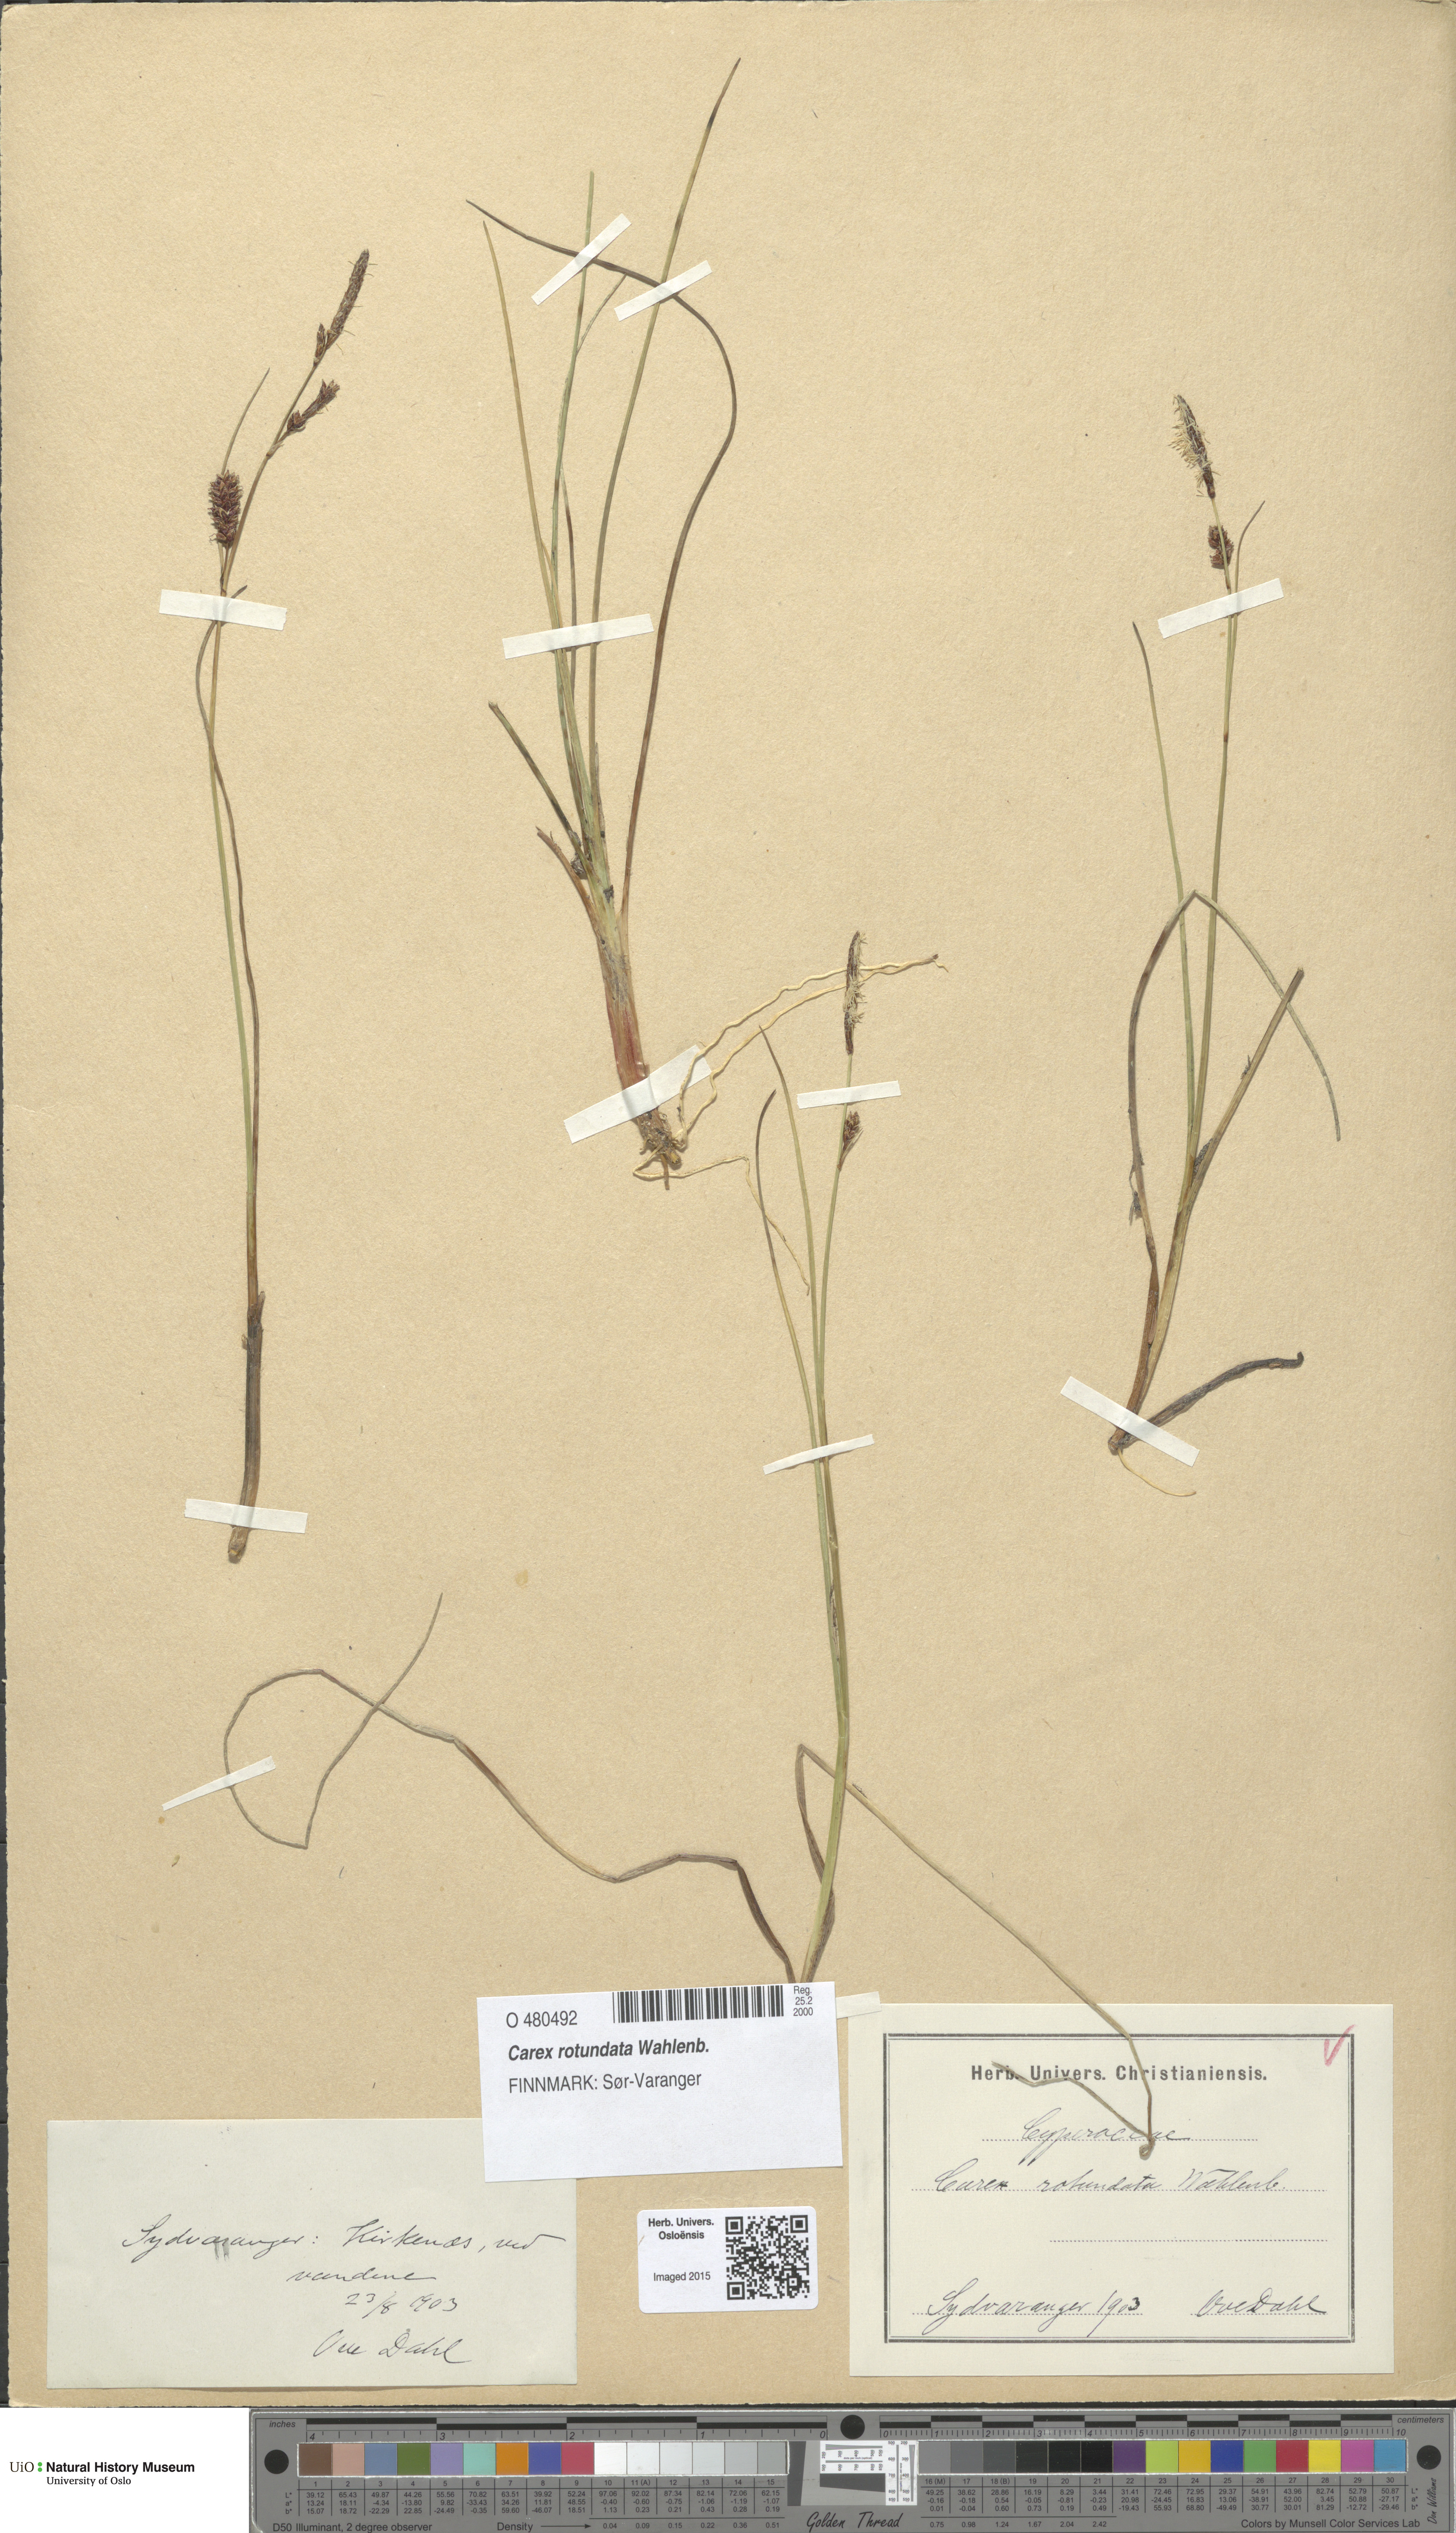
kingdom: Plantae
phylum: Tracheophyta
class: Liliopsida
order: Poales
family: Cyperaceae
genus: Carex
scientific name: Carex rotundata
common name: Round-fruited sedge
